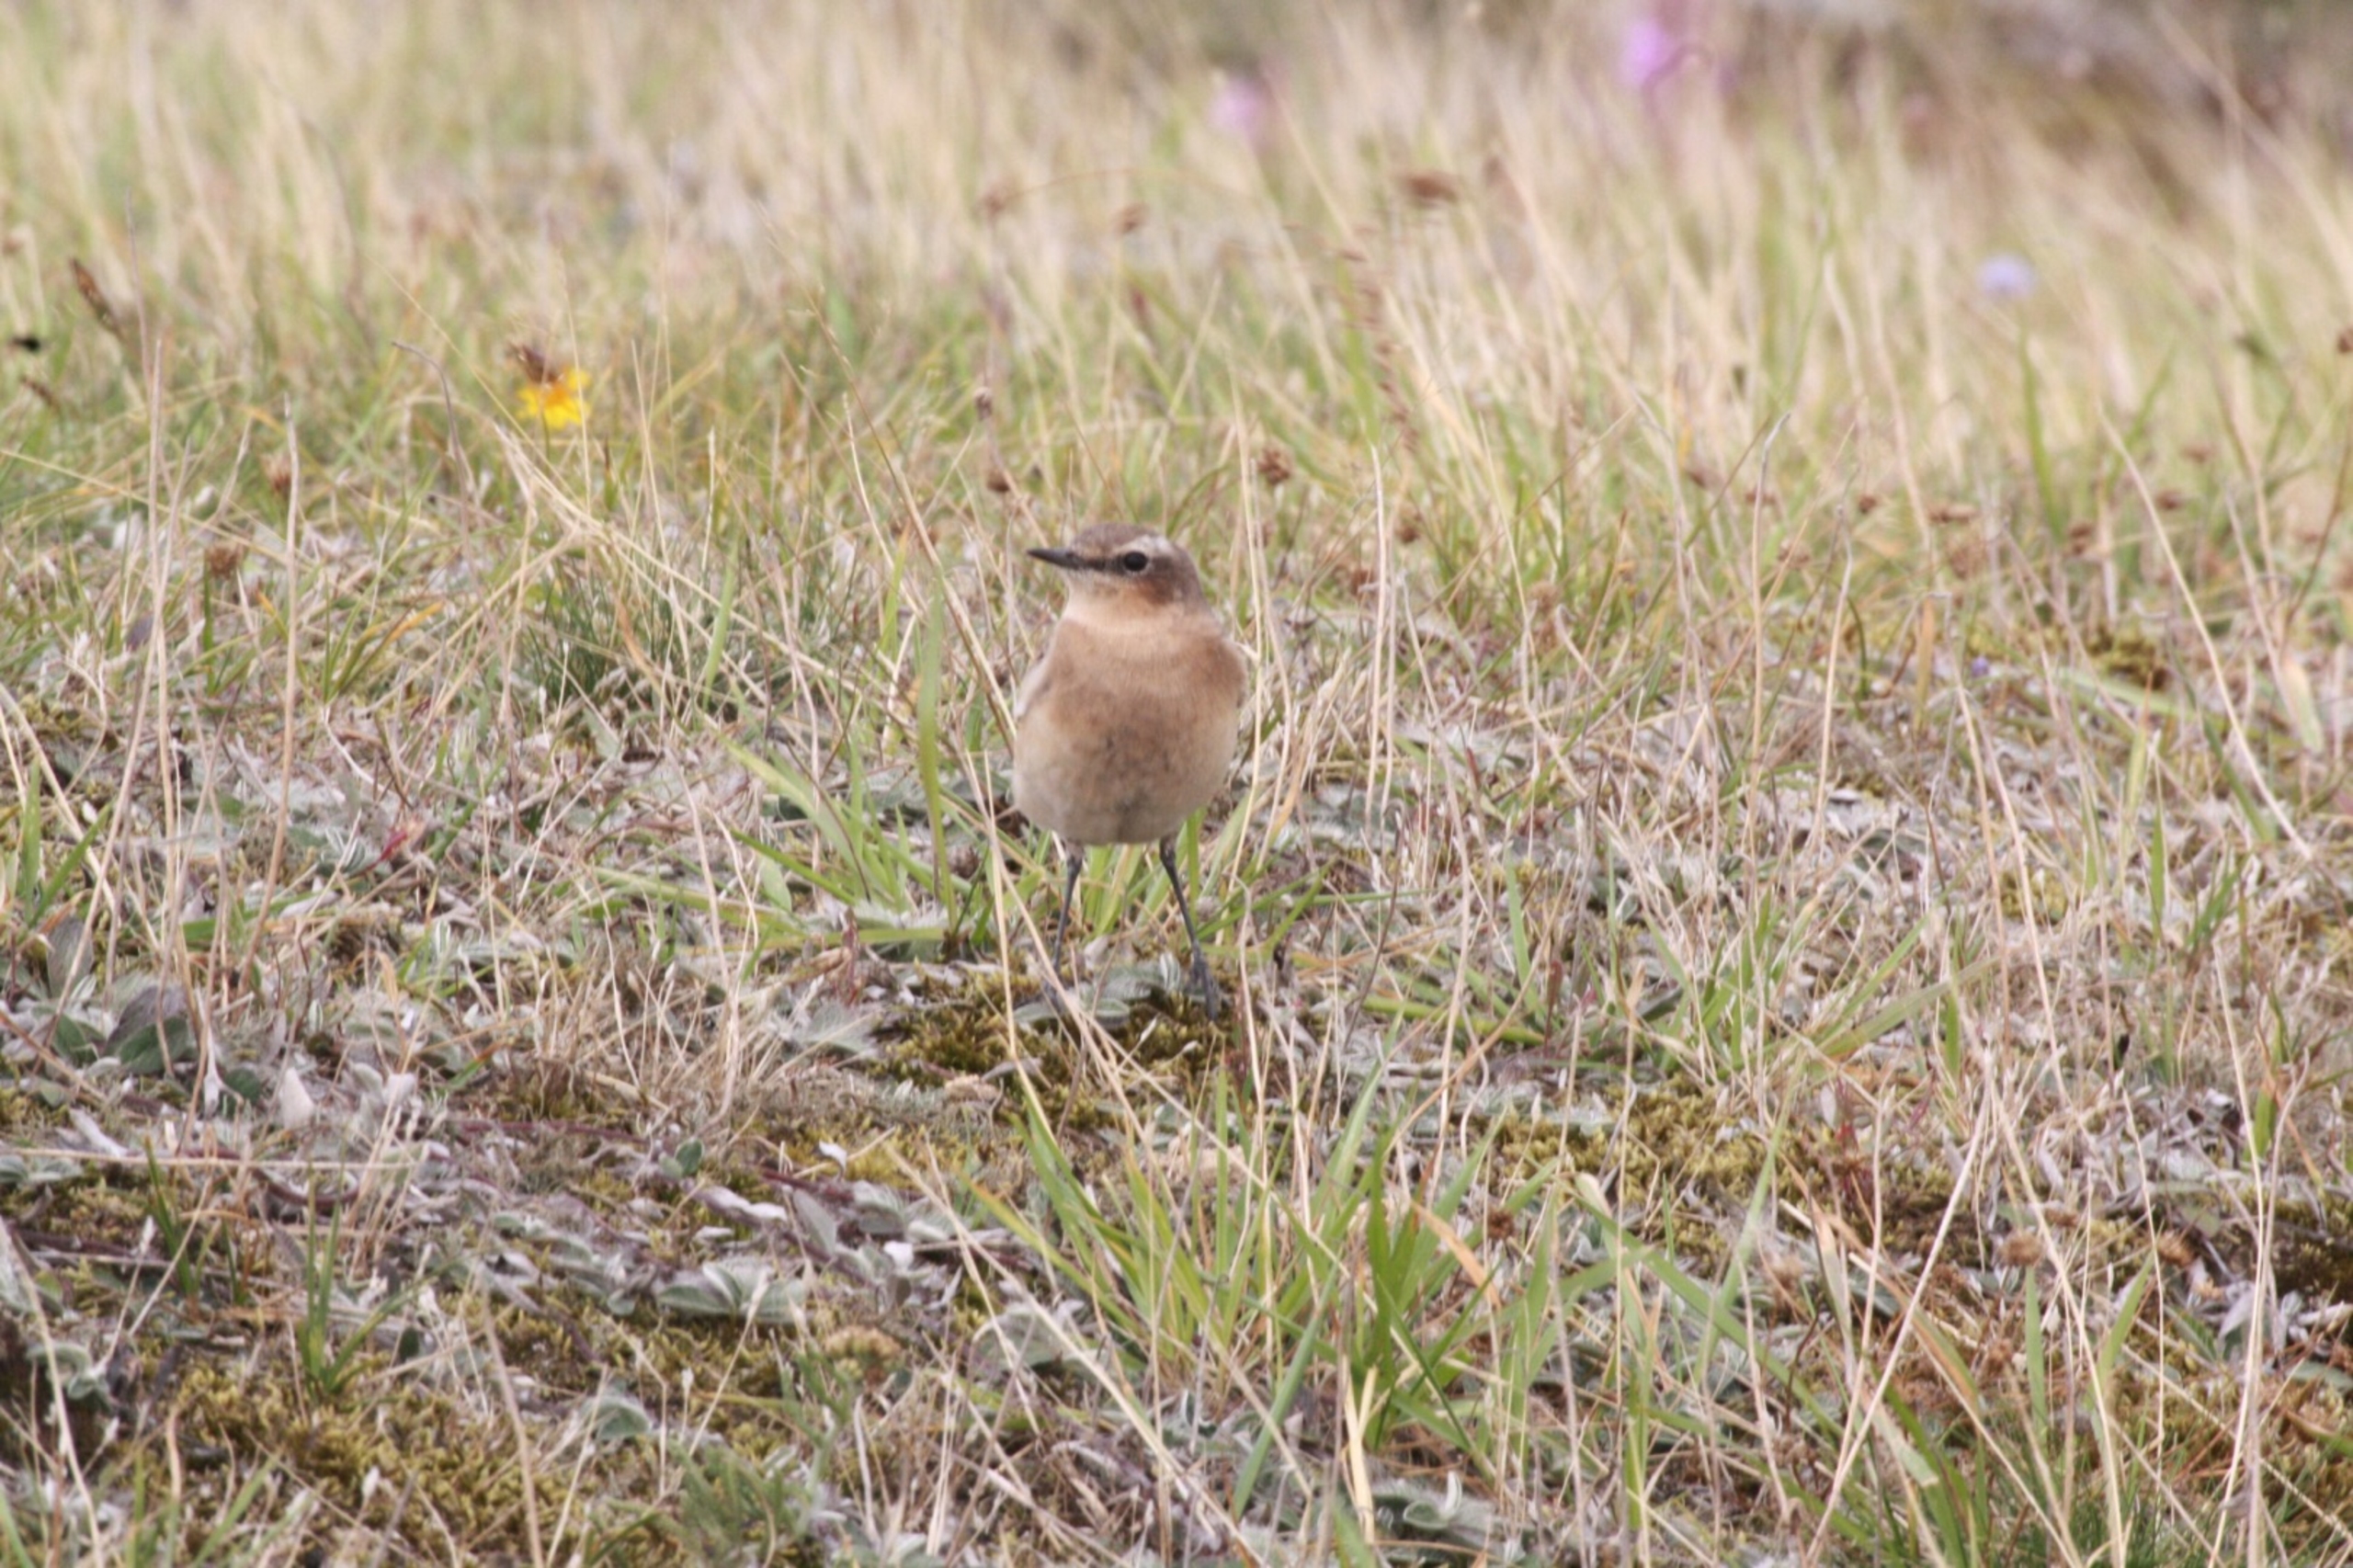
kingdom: Animalia
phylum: Chordata
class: Aves
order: Passeriformes
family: Muscicapidae
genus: Oenanthe
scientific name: Oenanthe oenanthe
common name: Stenpikker
